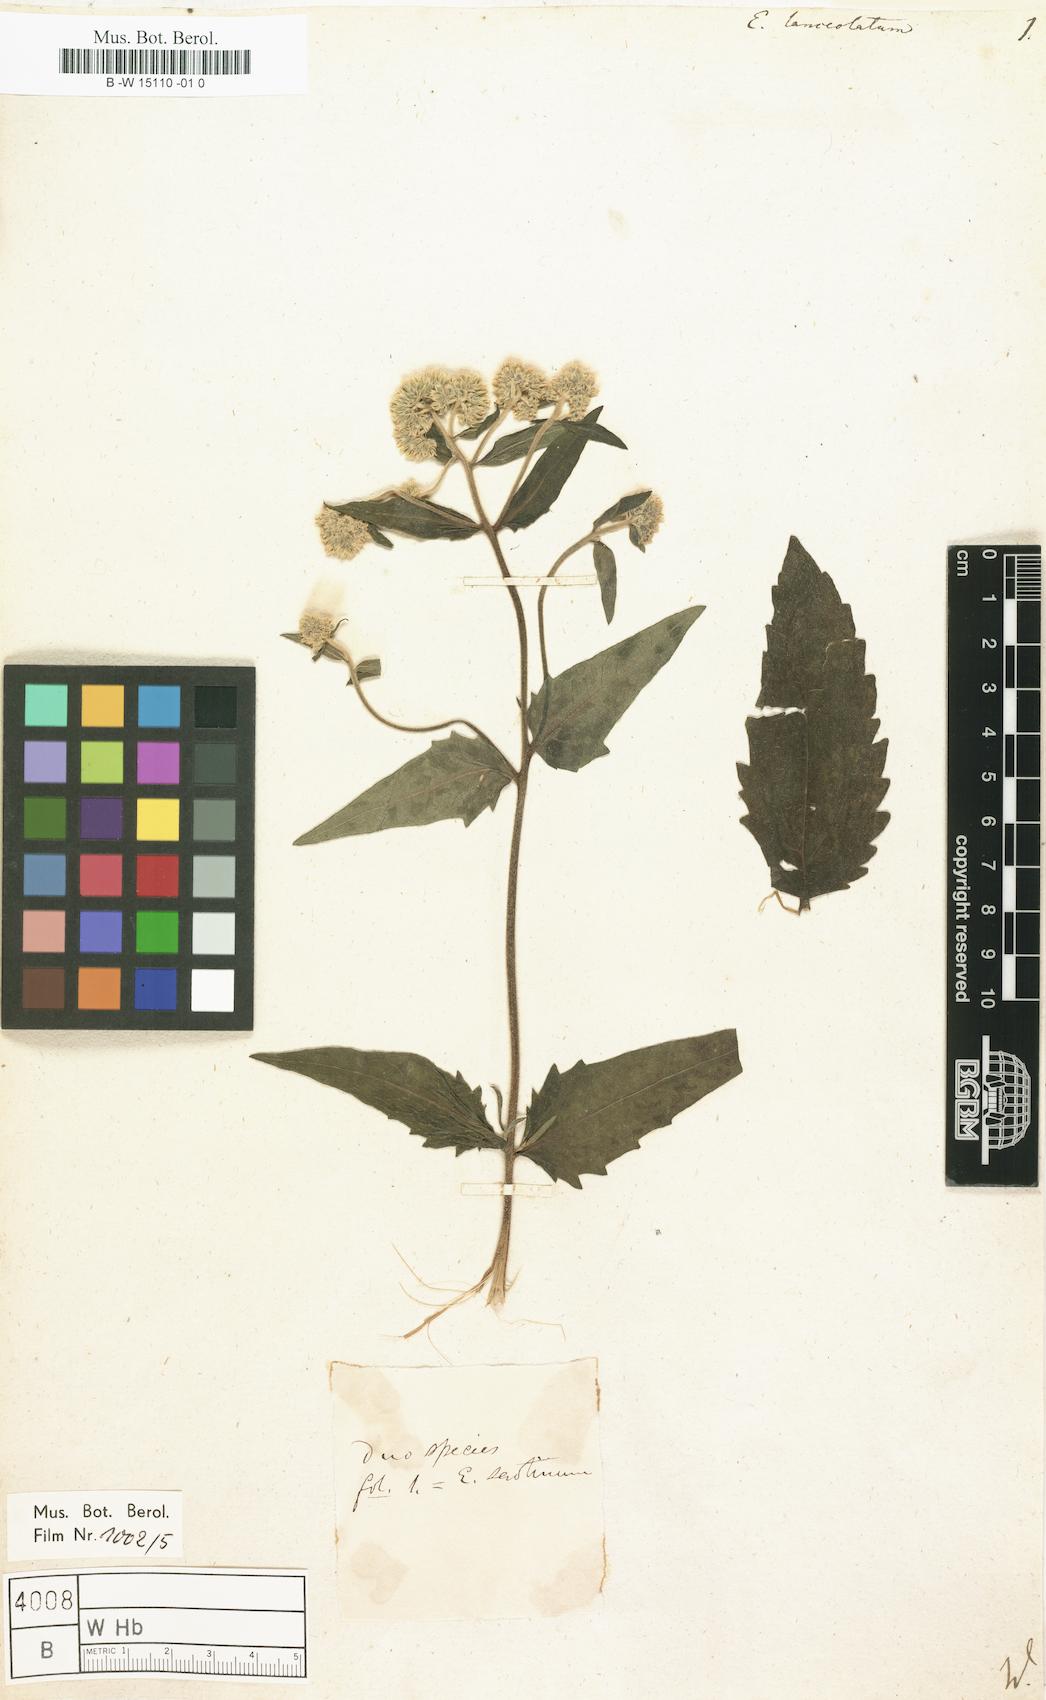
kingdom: Plantae
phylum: Tracheophyta
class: Magnoliopsida
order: Asterales
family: Asteraceae
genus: Eupatorium
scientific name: Eupatorium lanceolatum
